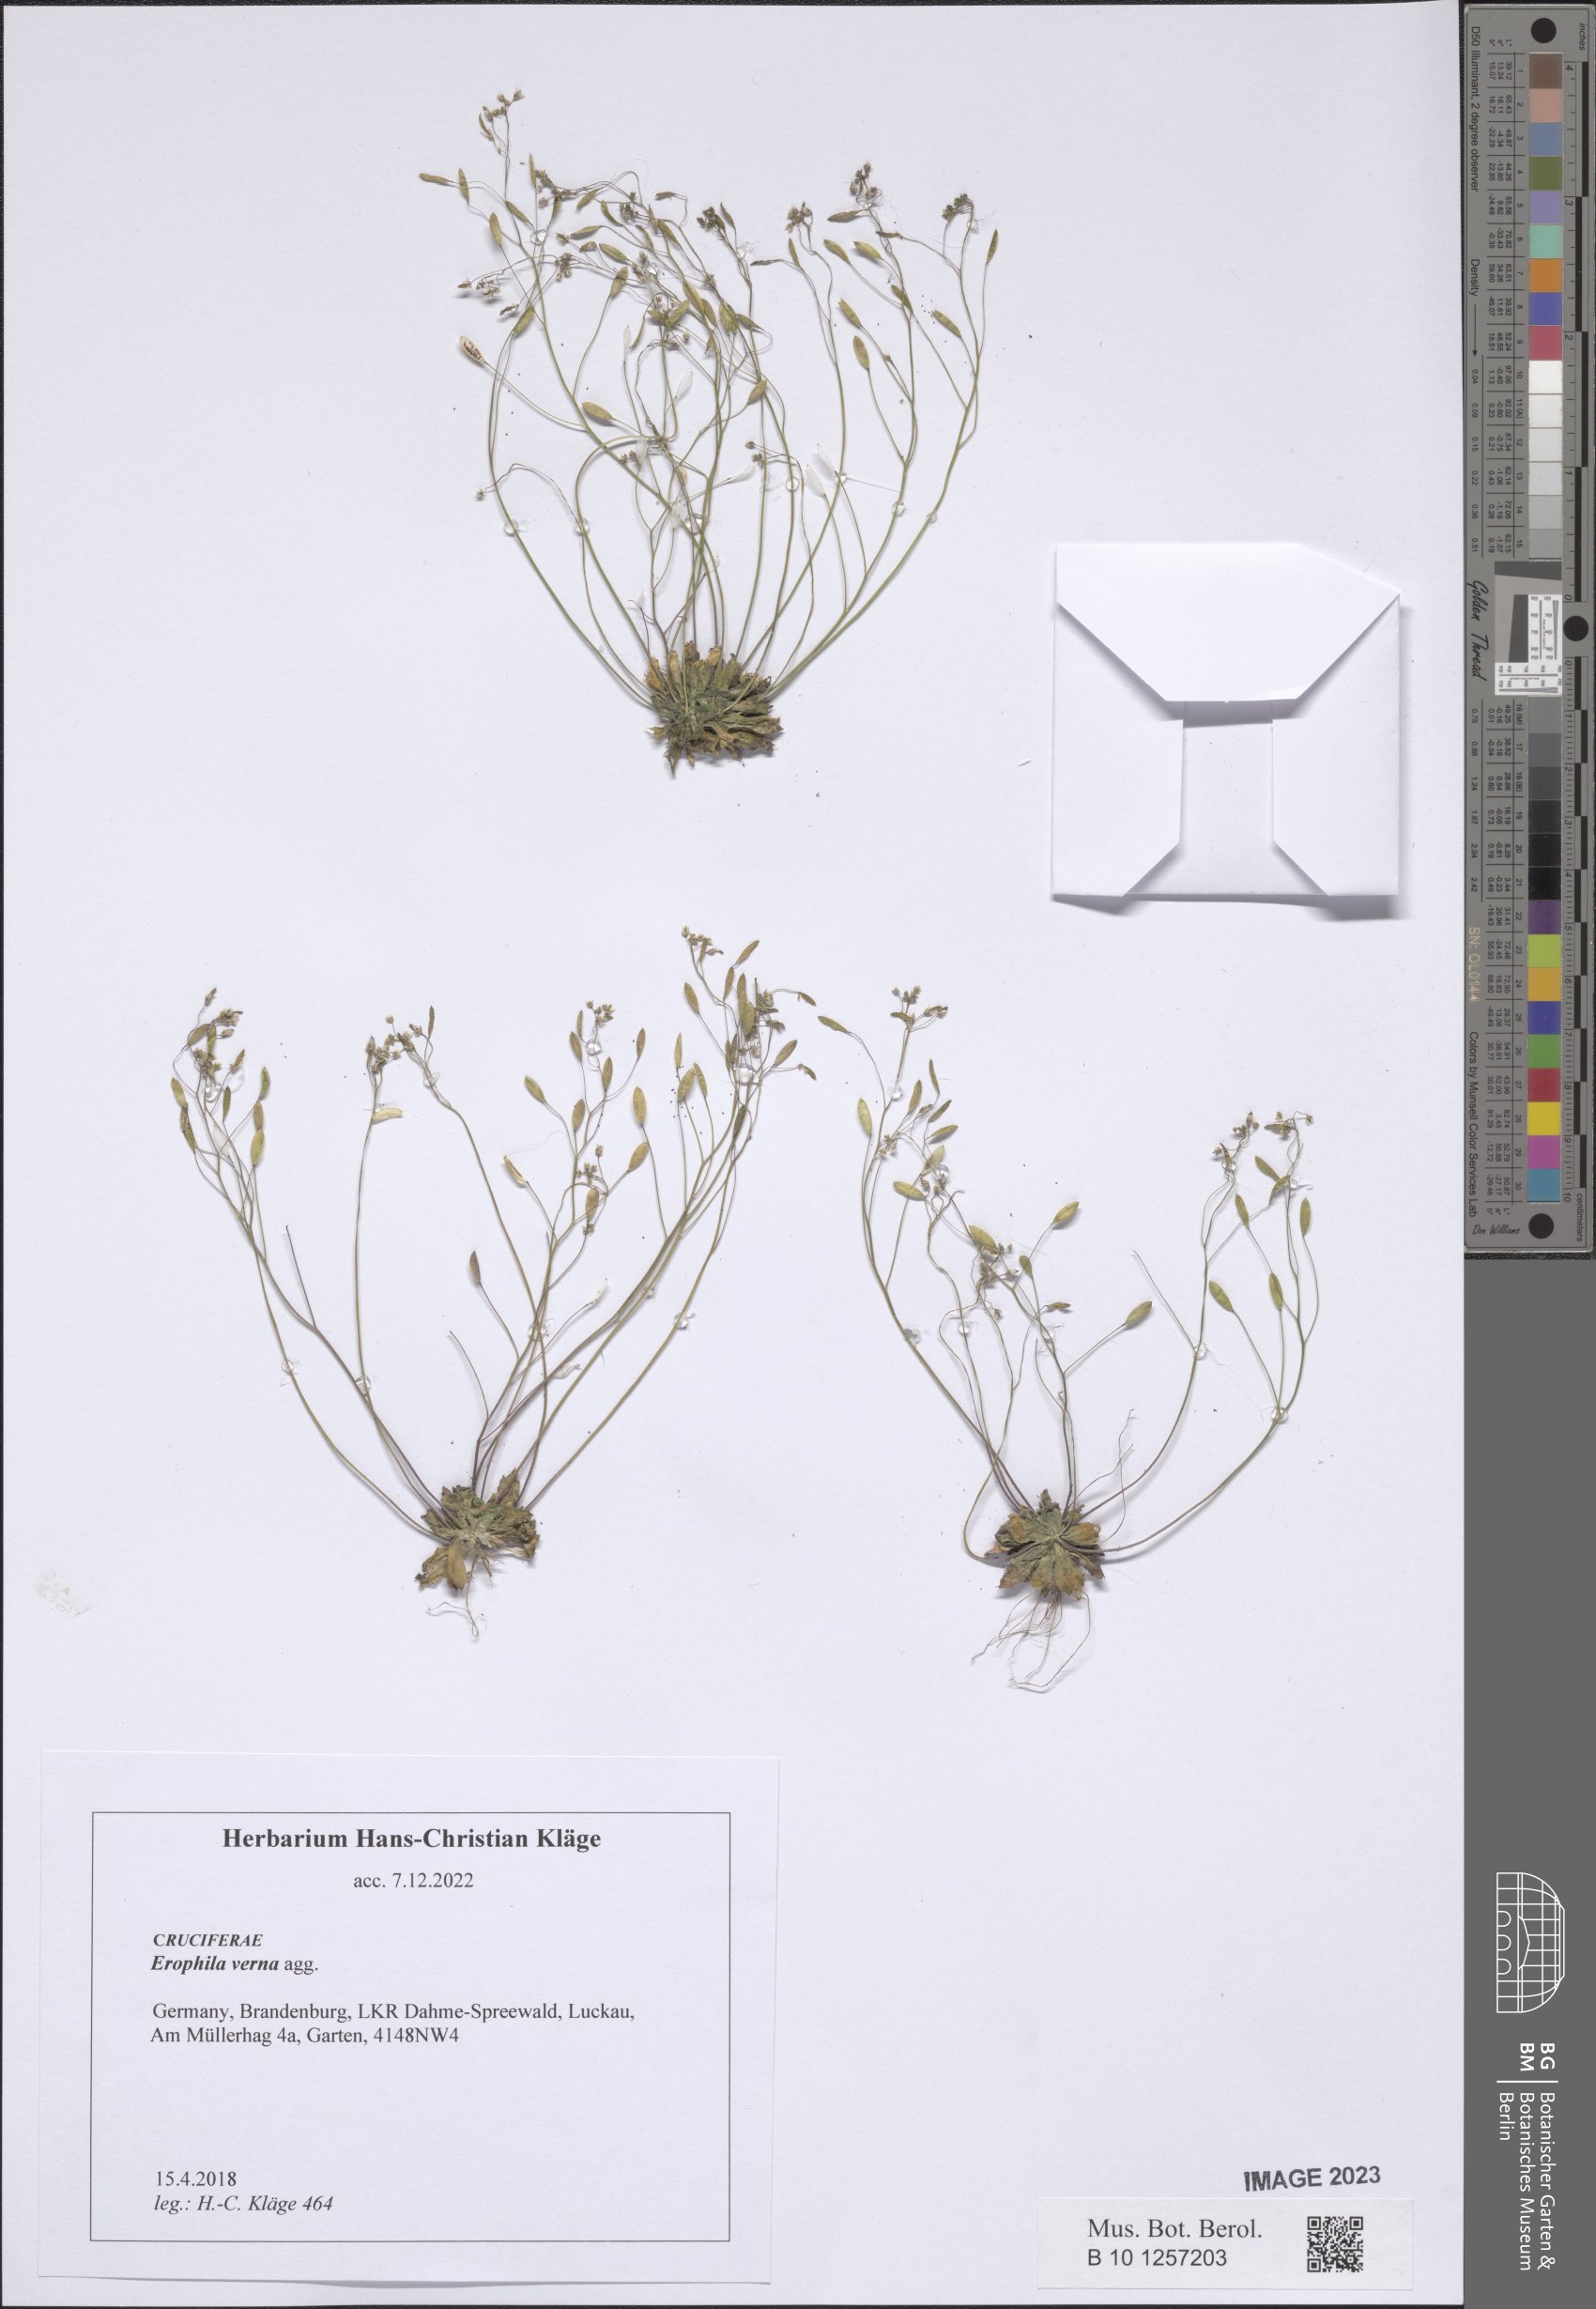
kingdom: Plantae
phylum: Tracheophyta
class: Magnoliopsida
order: Brassicales
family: Brassicaceae
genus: Draba
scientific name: Draba verna
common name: Spring draba
